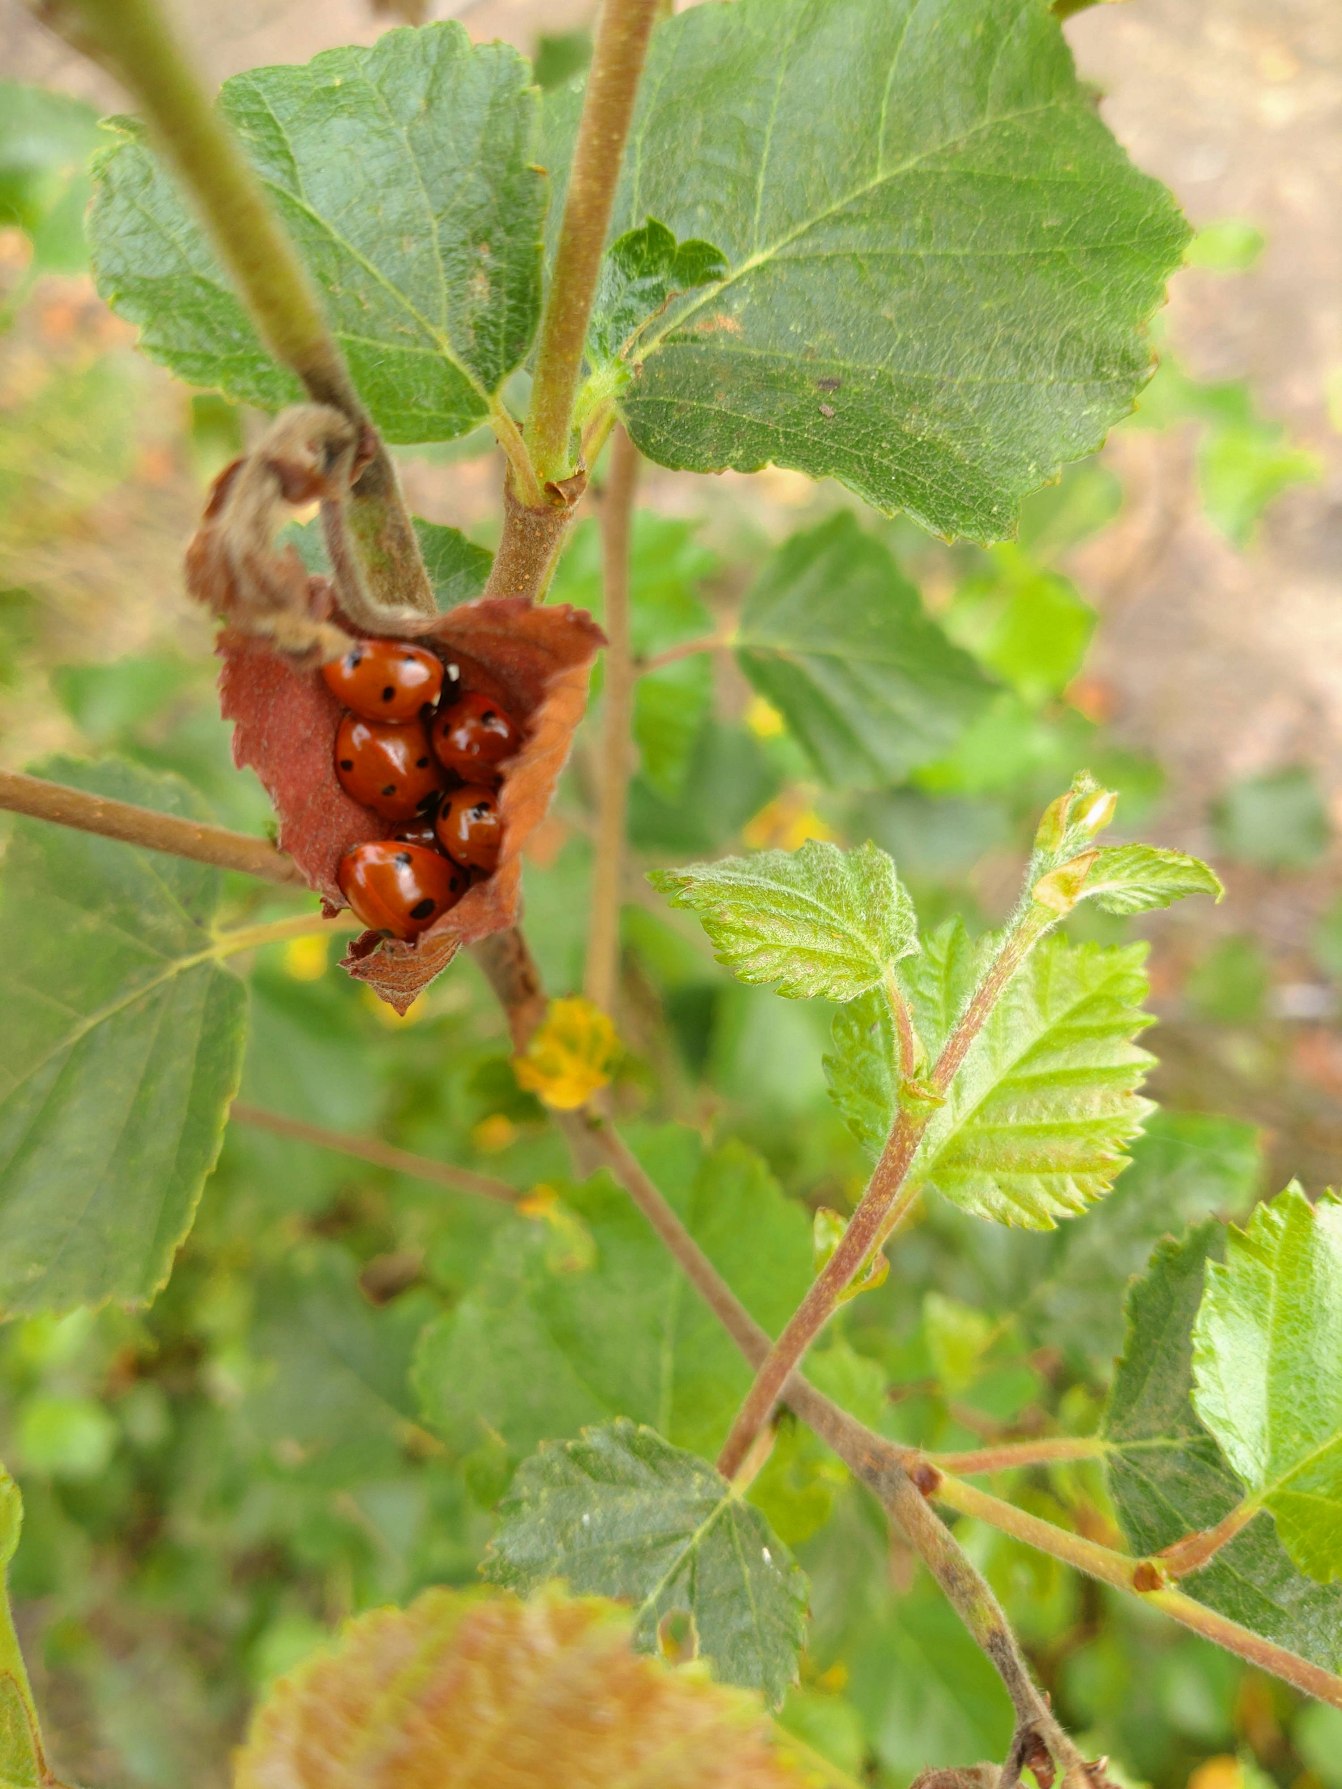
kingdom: Animalia
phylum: Arthropoda
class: Insecta
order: Coleoptera
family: Coccinellidae
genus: Coccinella
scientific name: Coccinella septempunctata
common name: Syvplettet mariehøne
